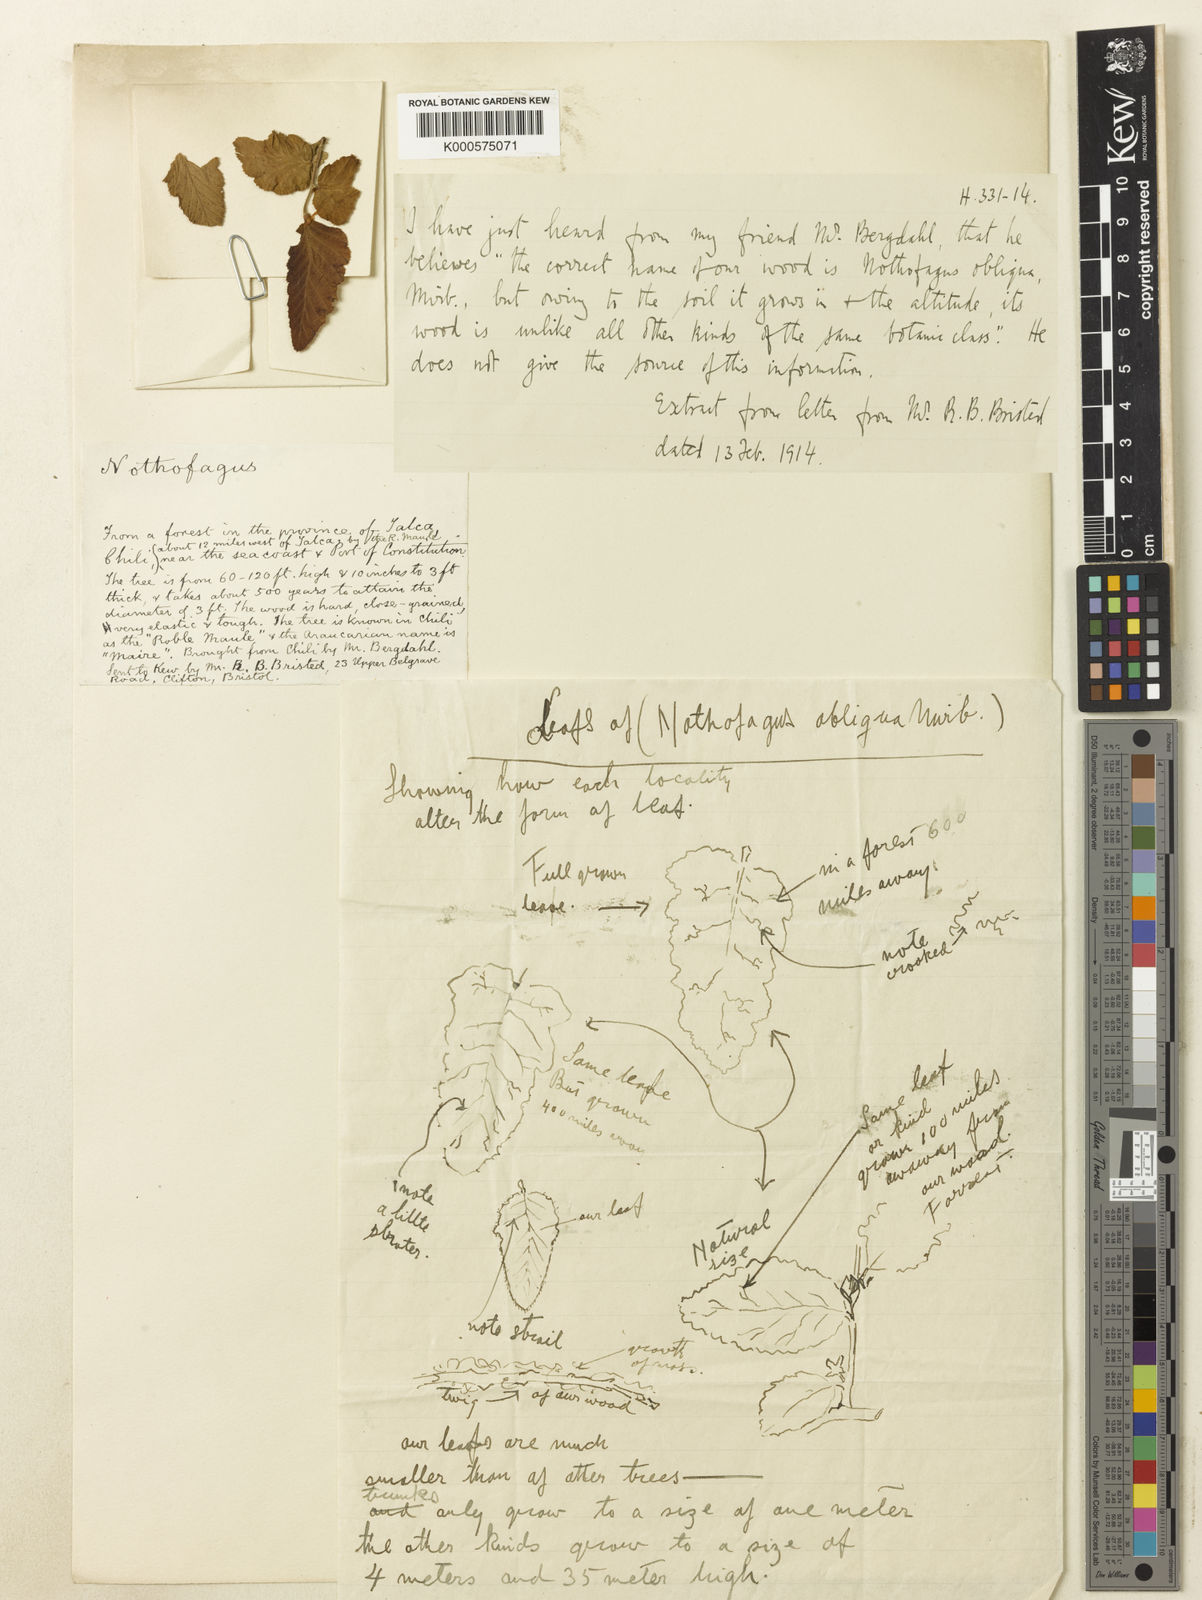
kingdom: Plantae
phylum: Tracheophyta
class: Magnoliopsida
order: Fagales
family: Nothofagaceae
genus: Nothofagus
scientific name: Nothofagus obliqua
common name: Roble beech
